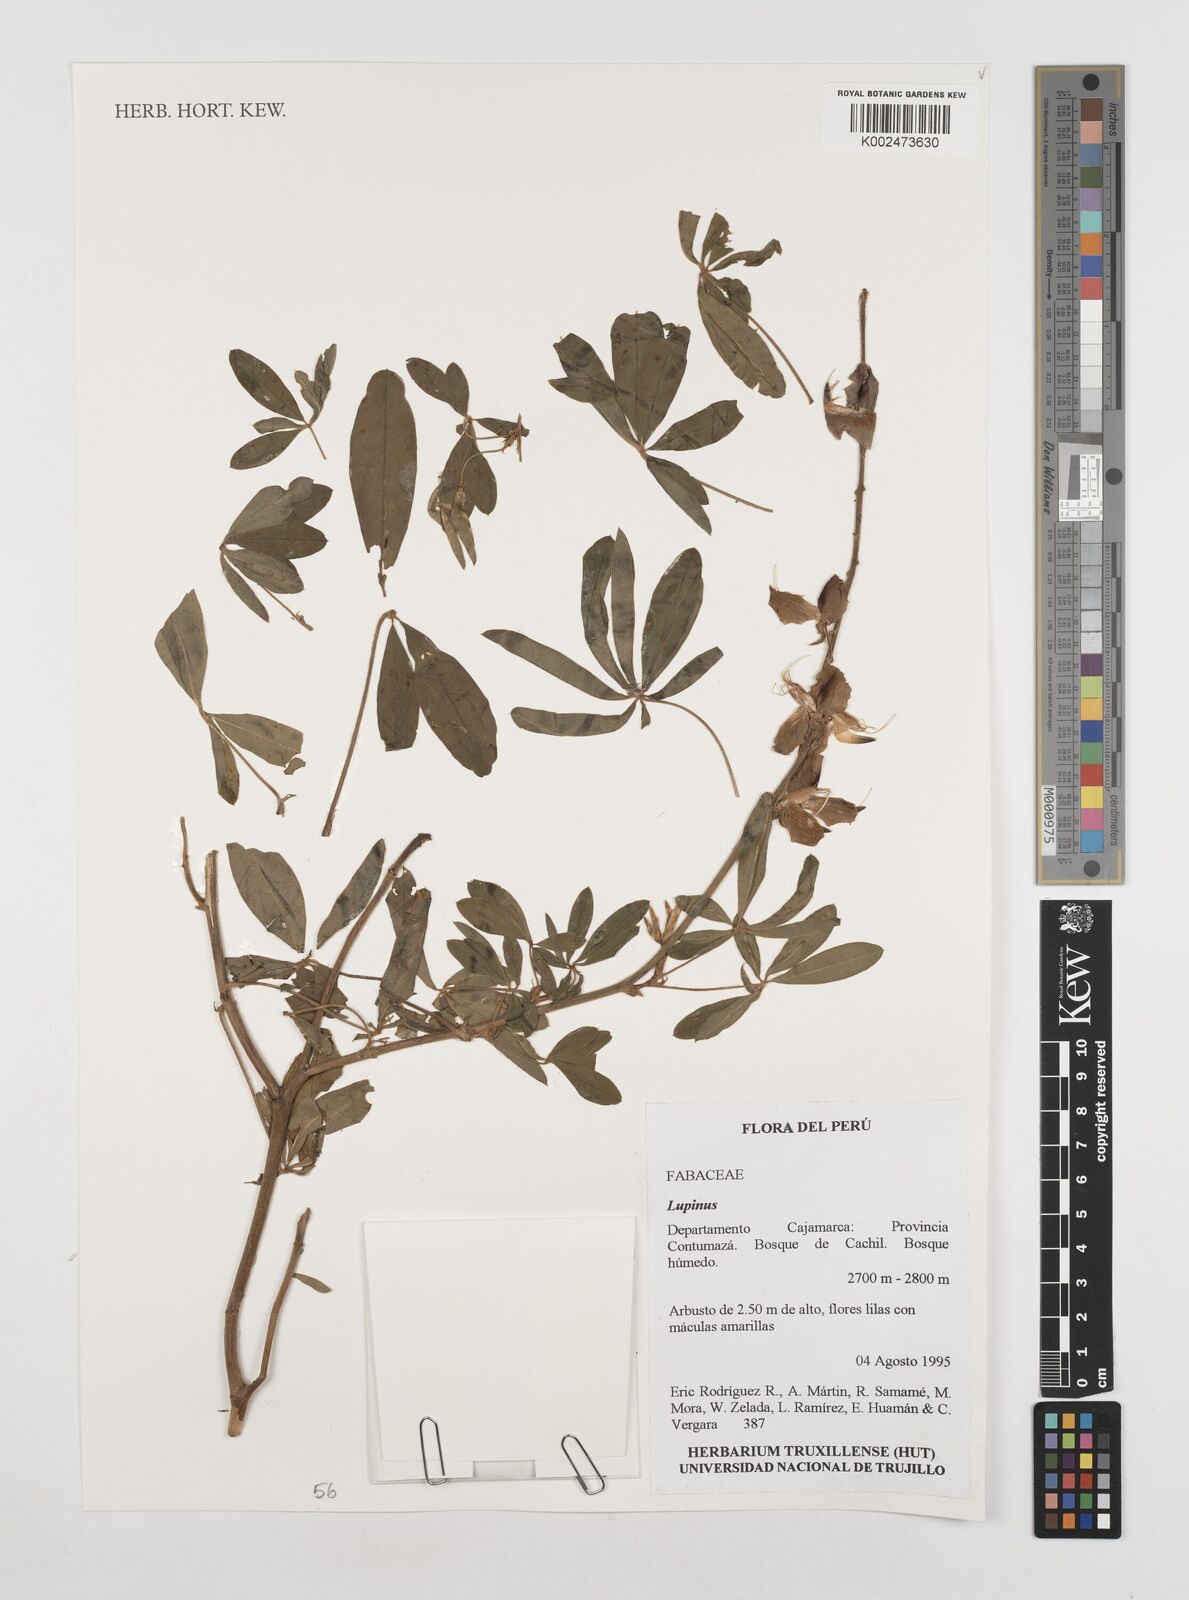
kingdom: Plantae
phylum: Tracheophyta
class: Magnoliopsida
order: Fabales
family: Fabaceae
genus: Lupinus
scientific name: Lupinus
